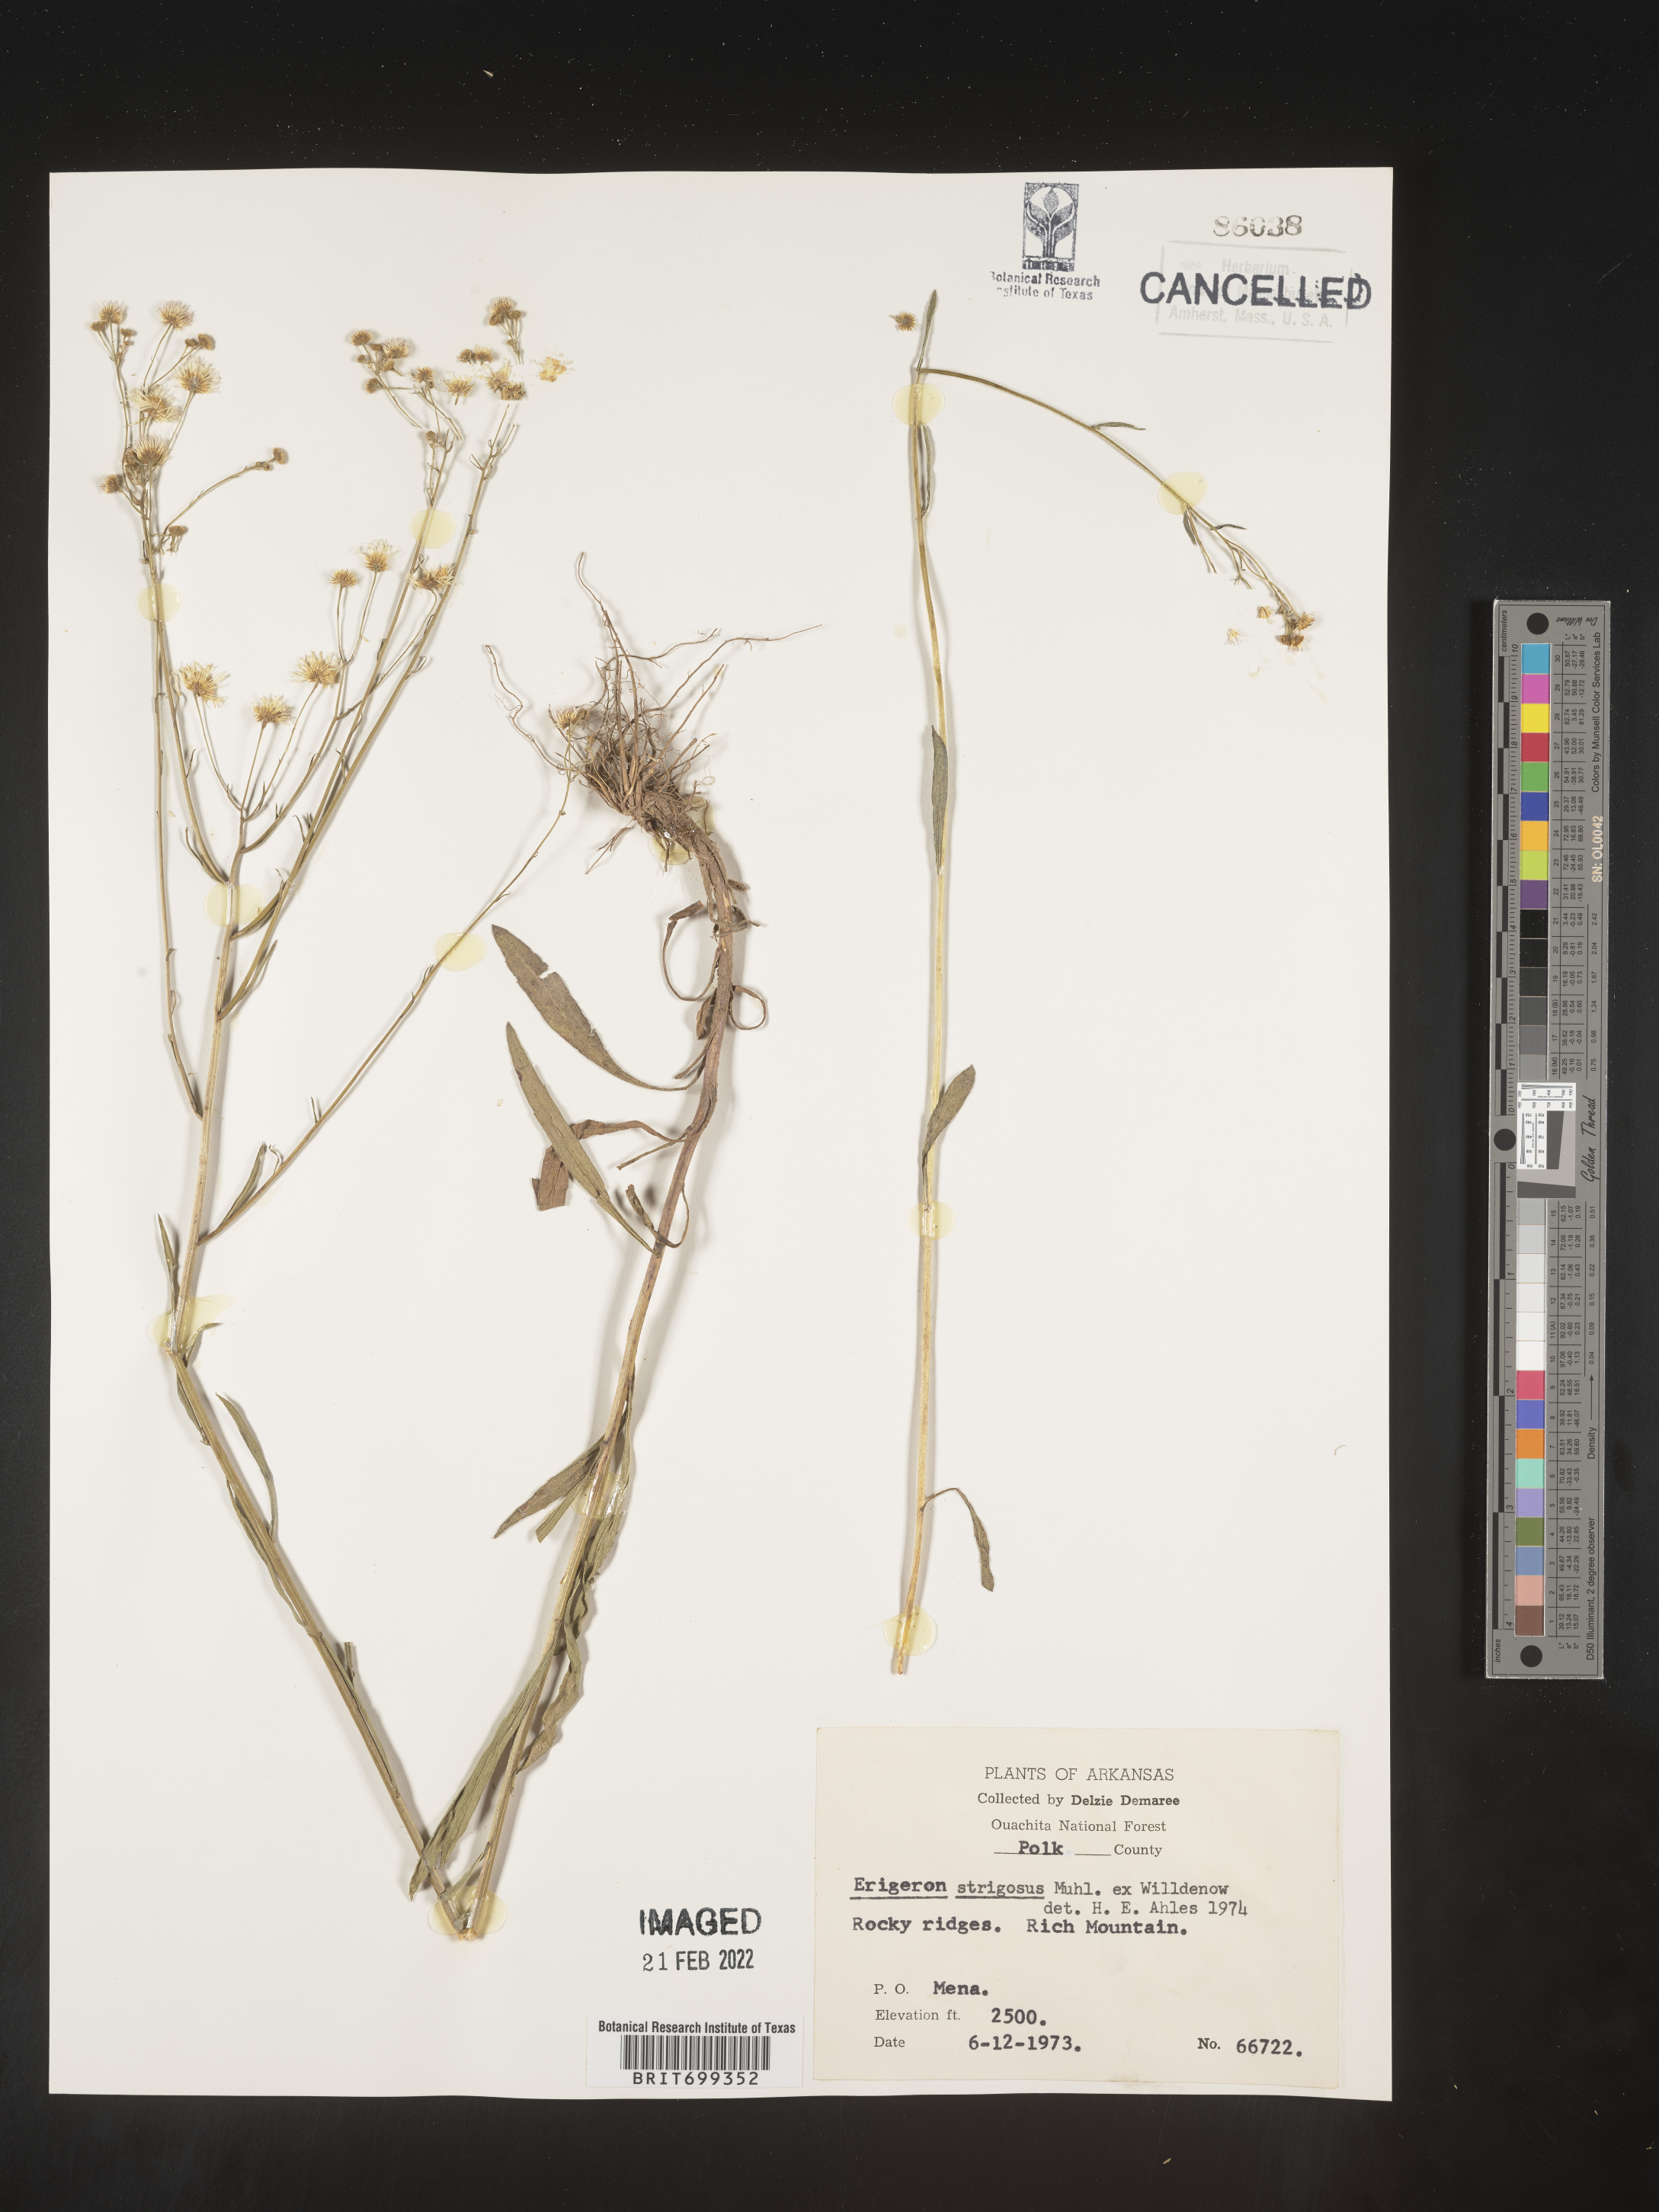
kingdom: Plantae
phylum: Tracheophyta
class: Magnoliopsida
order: Asterales
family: Asteraceae
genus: Erigeron
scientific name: Erigeron strigosus
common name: Common eastern fleabane
